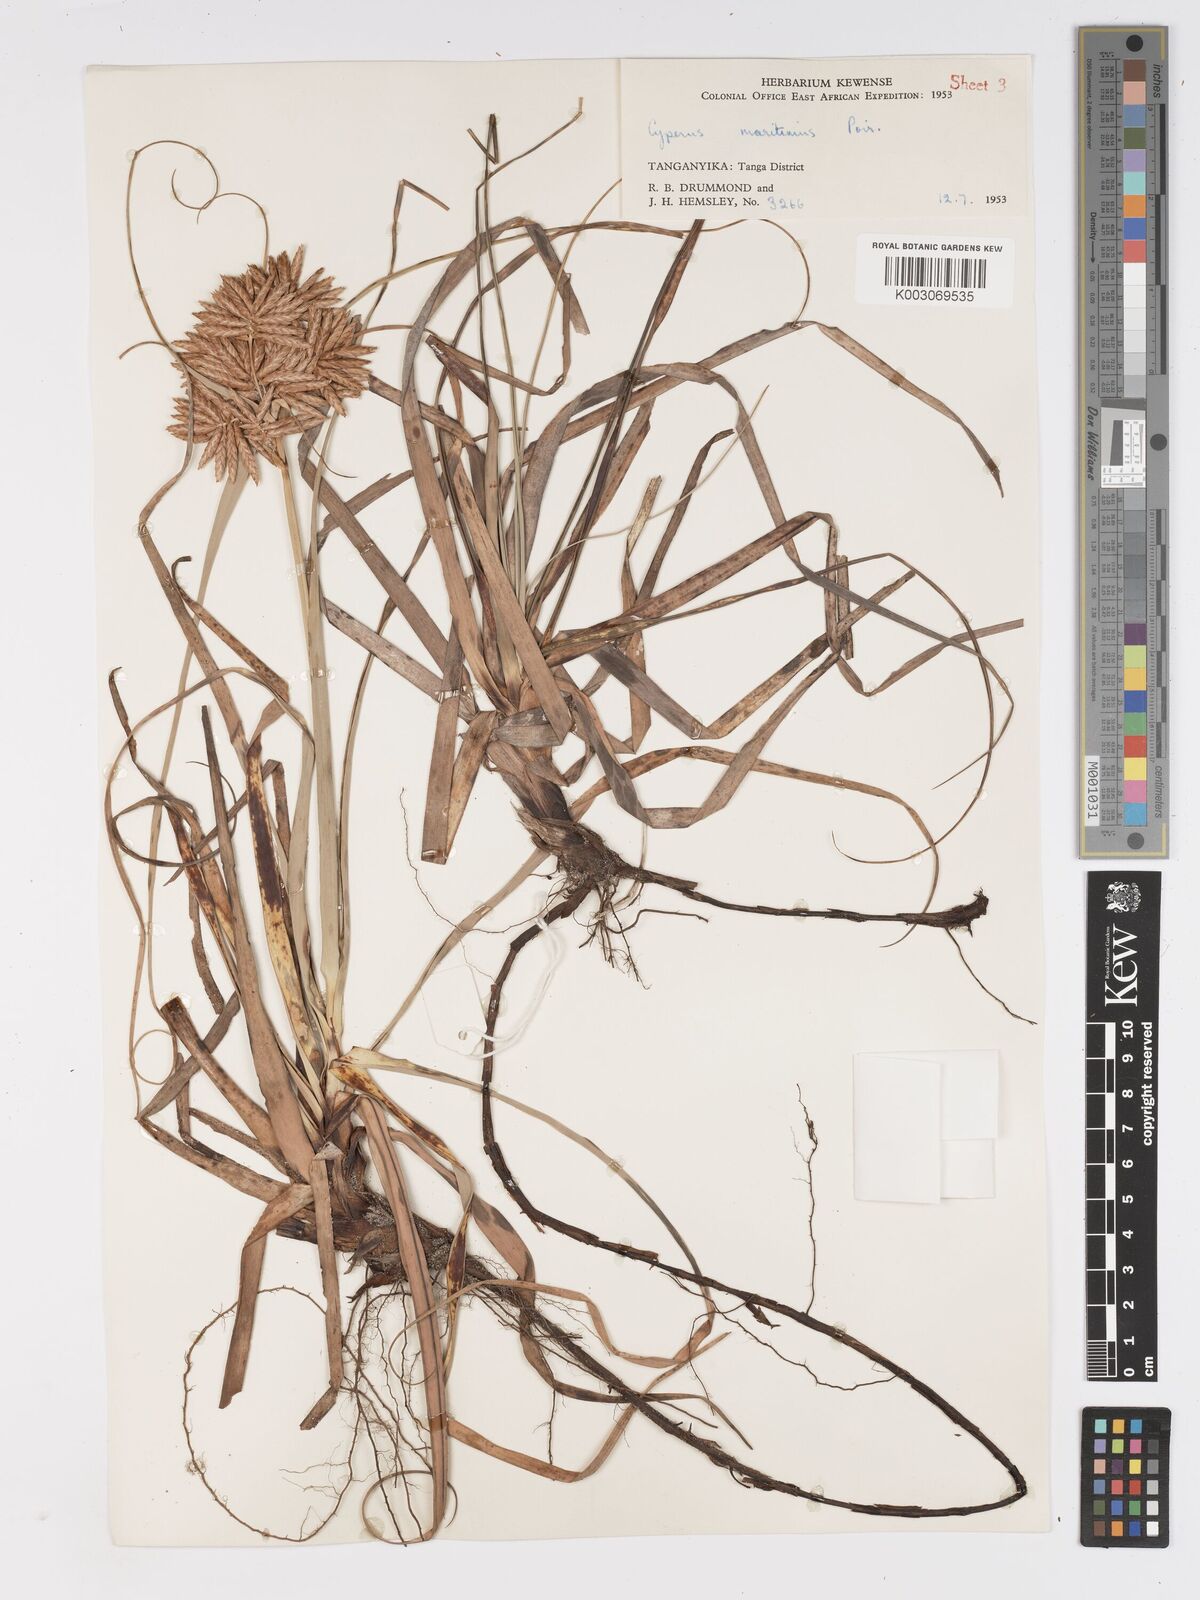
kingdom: Plantae
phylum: Tracheophyta
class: Liliopsida
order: Poales
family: Cyperaceae
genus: Cyperus
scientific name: Cyperus crassipes
